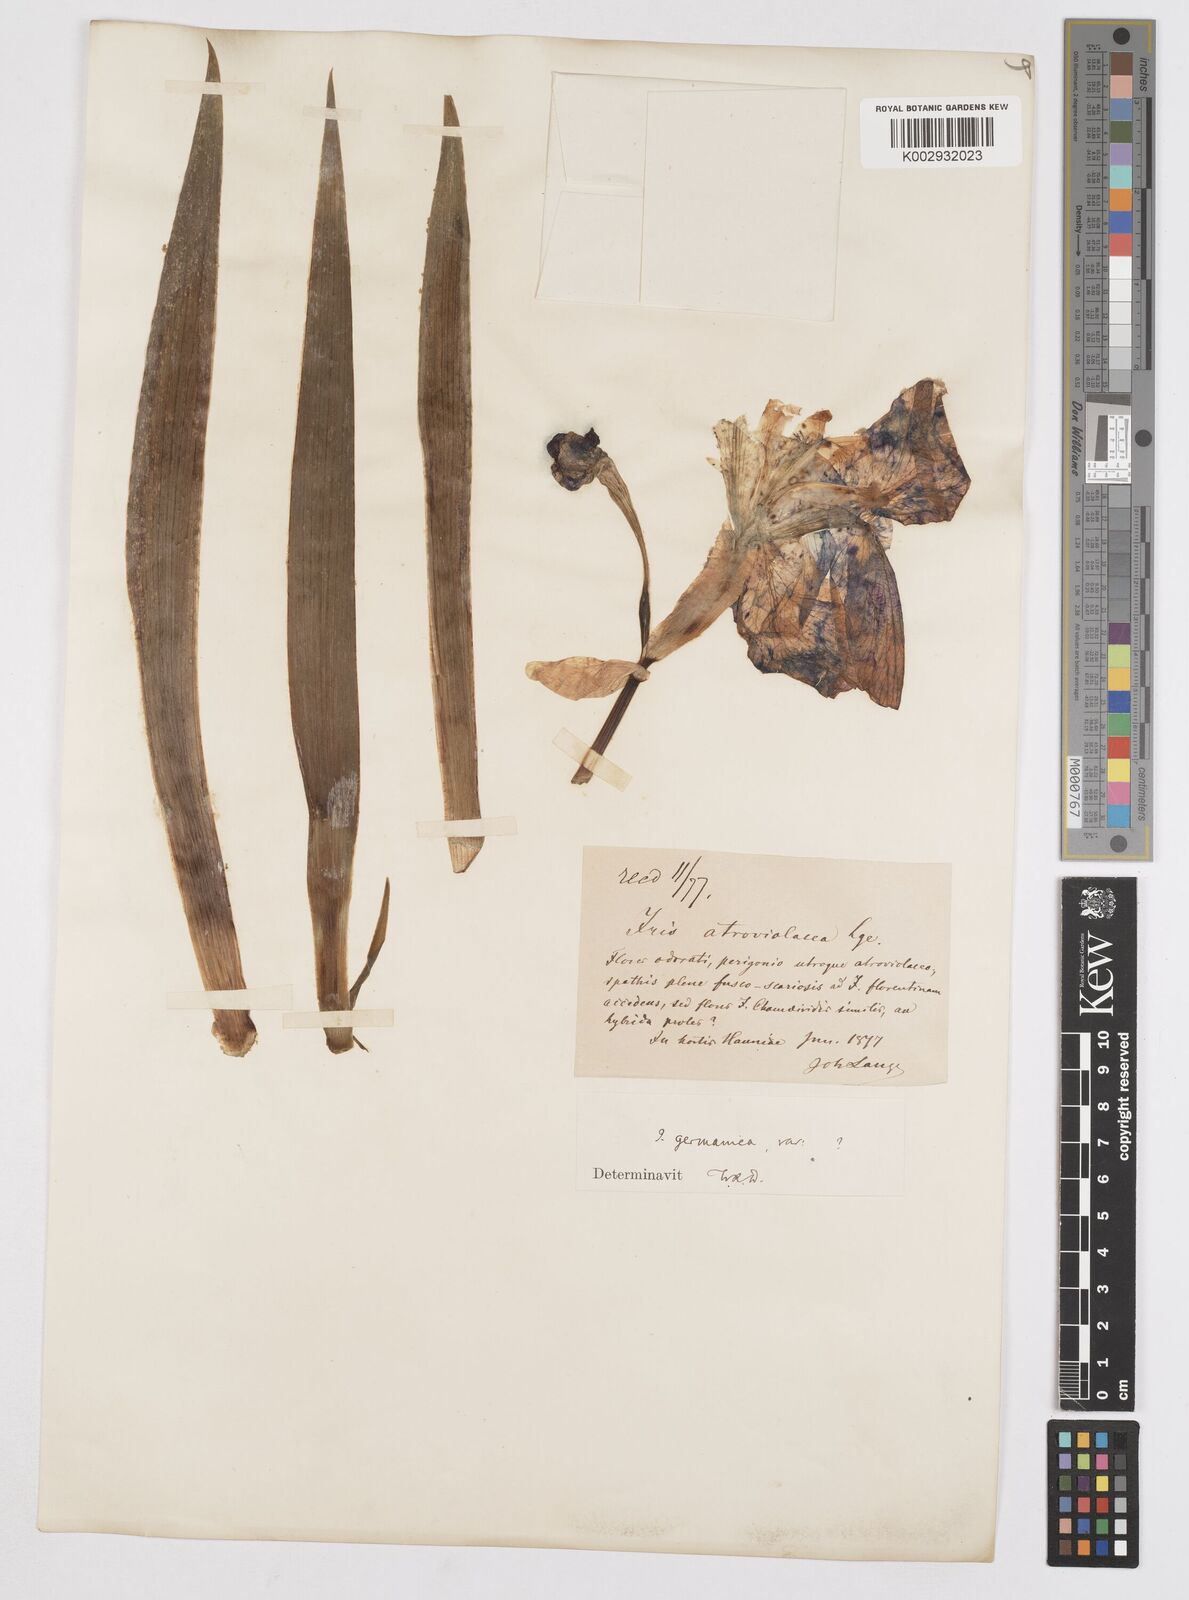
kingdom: Plantae
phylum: Tracheophyta
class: Liliopsida
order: Asparagales
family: Iridaceae
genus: Iris
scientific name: Iris germanica
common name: German iris
